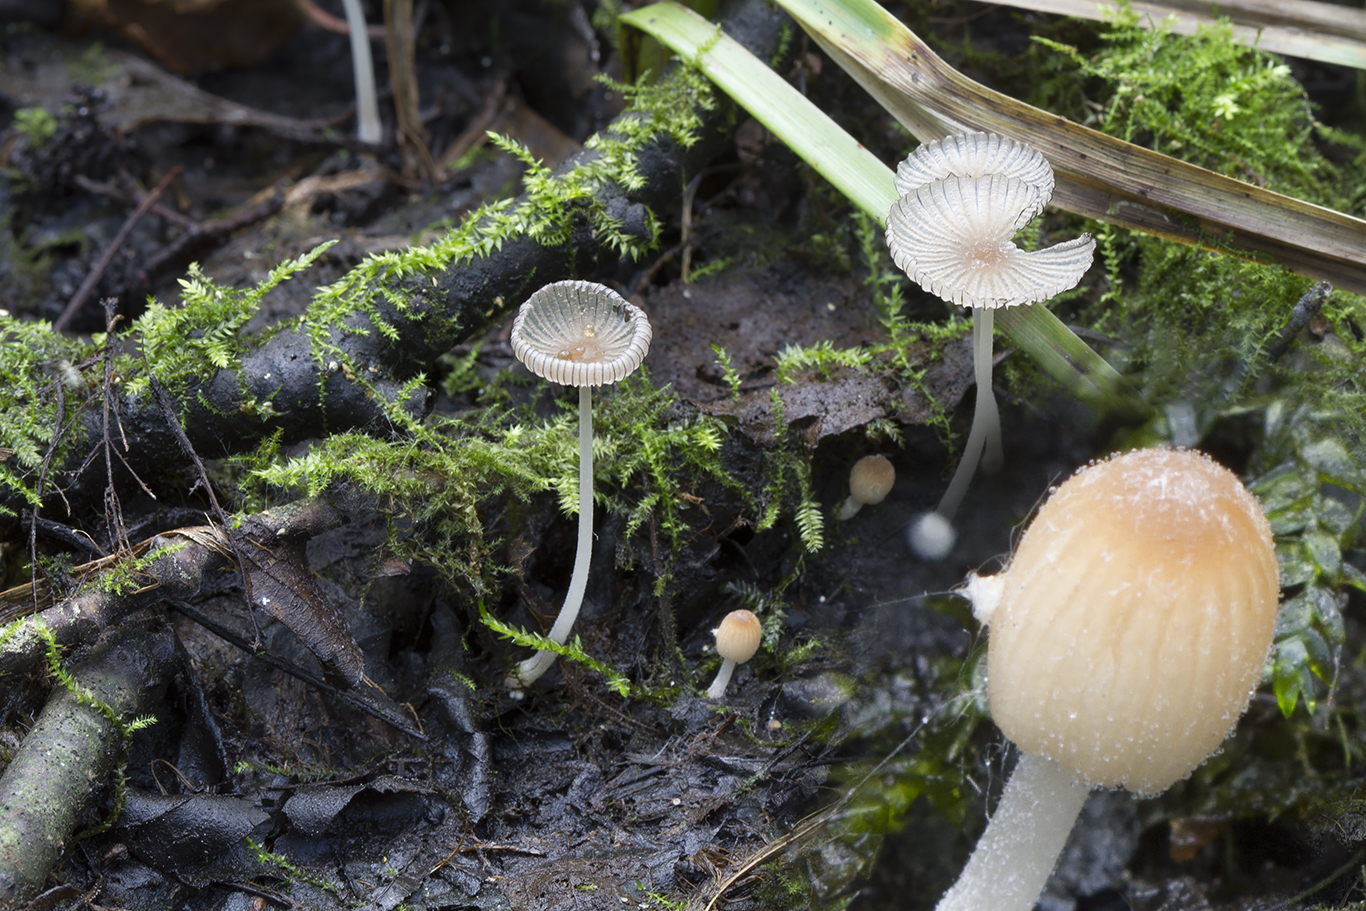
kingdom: Fungi
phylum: Basidiomycota
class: Agaricomycetes
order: Agaricales
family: Psathyrellaceae
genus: Tulosesus
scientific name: Tulosesus
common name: blækhat
